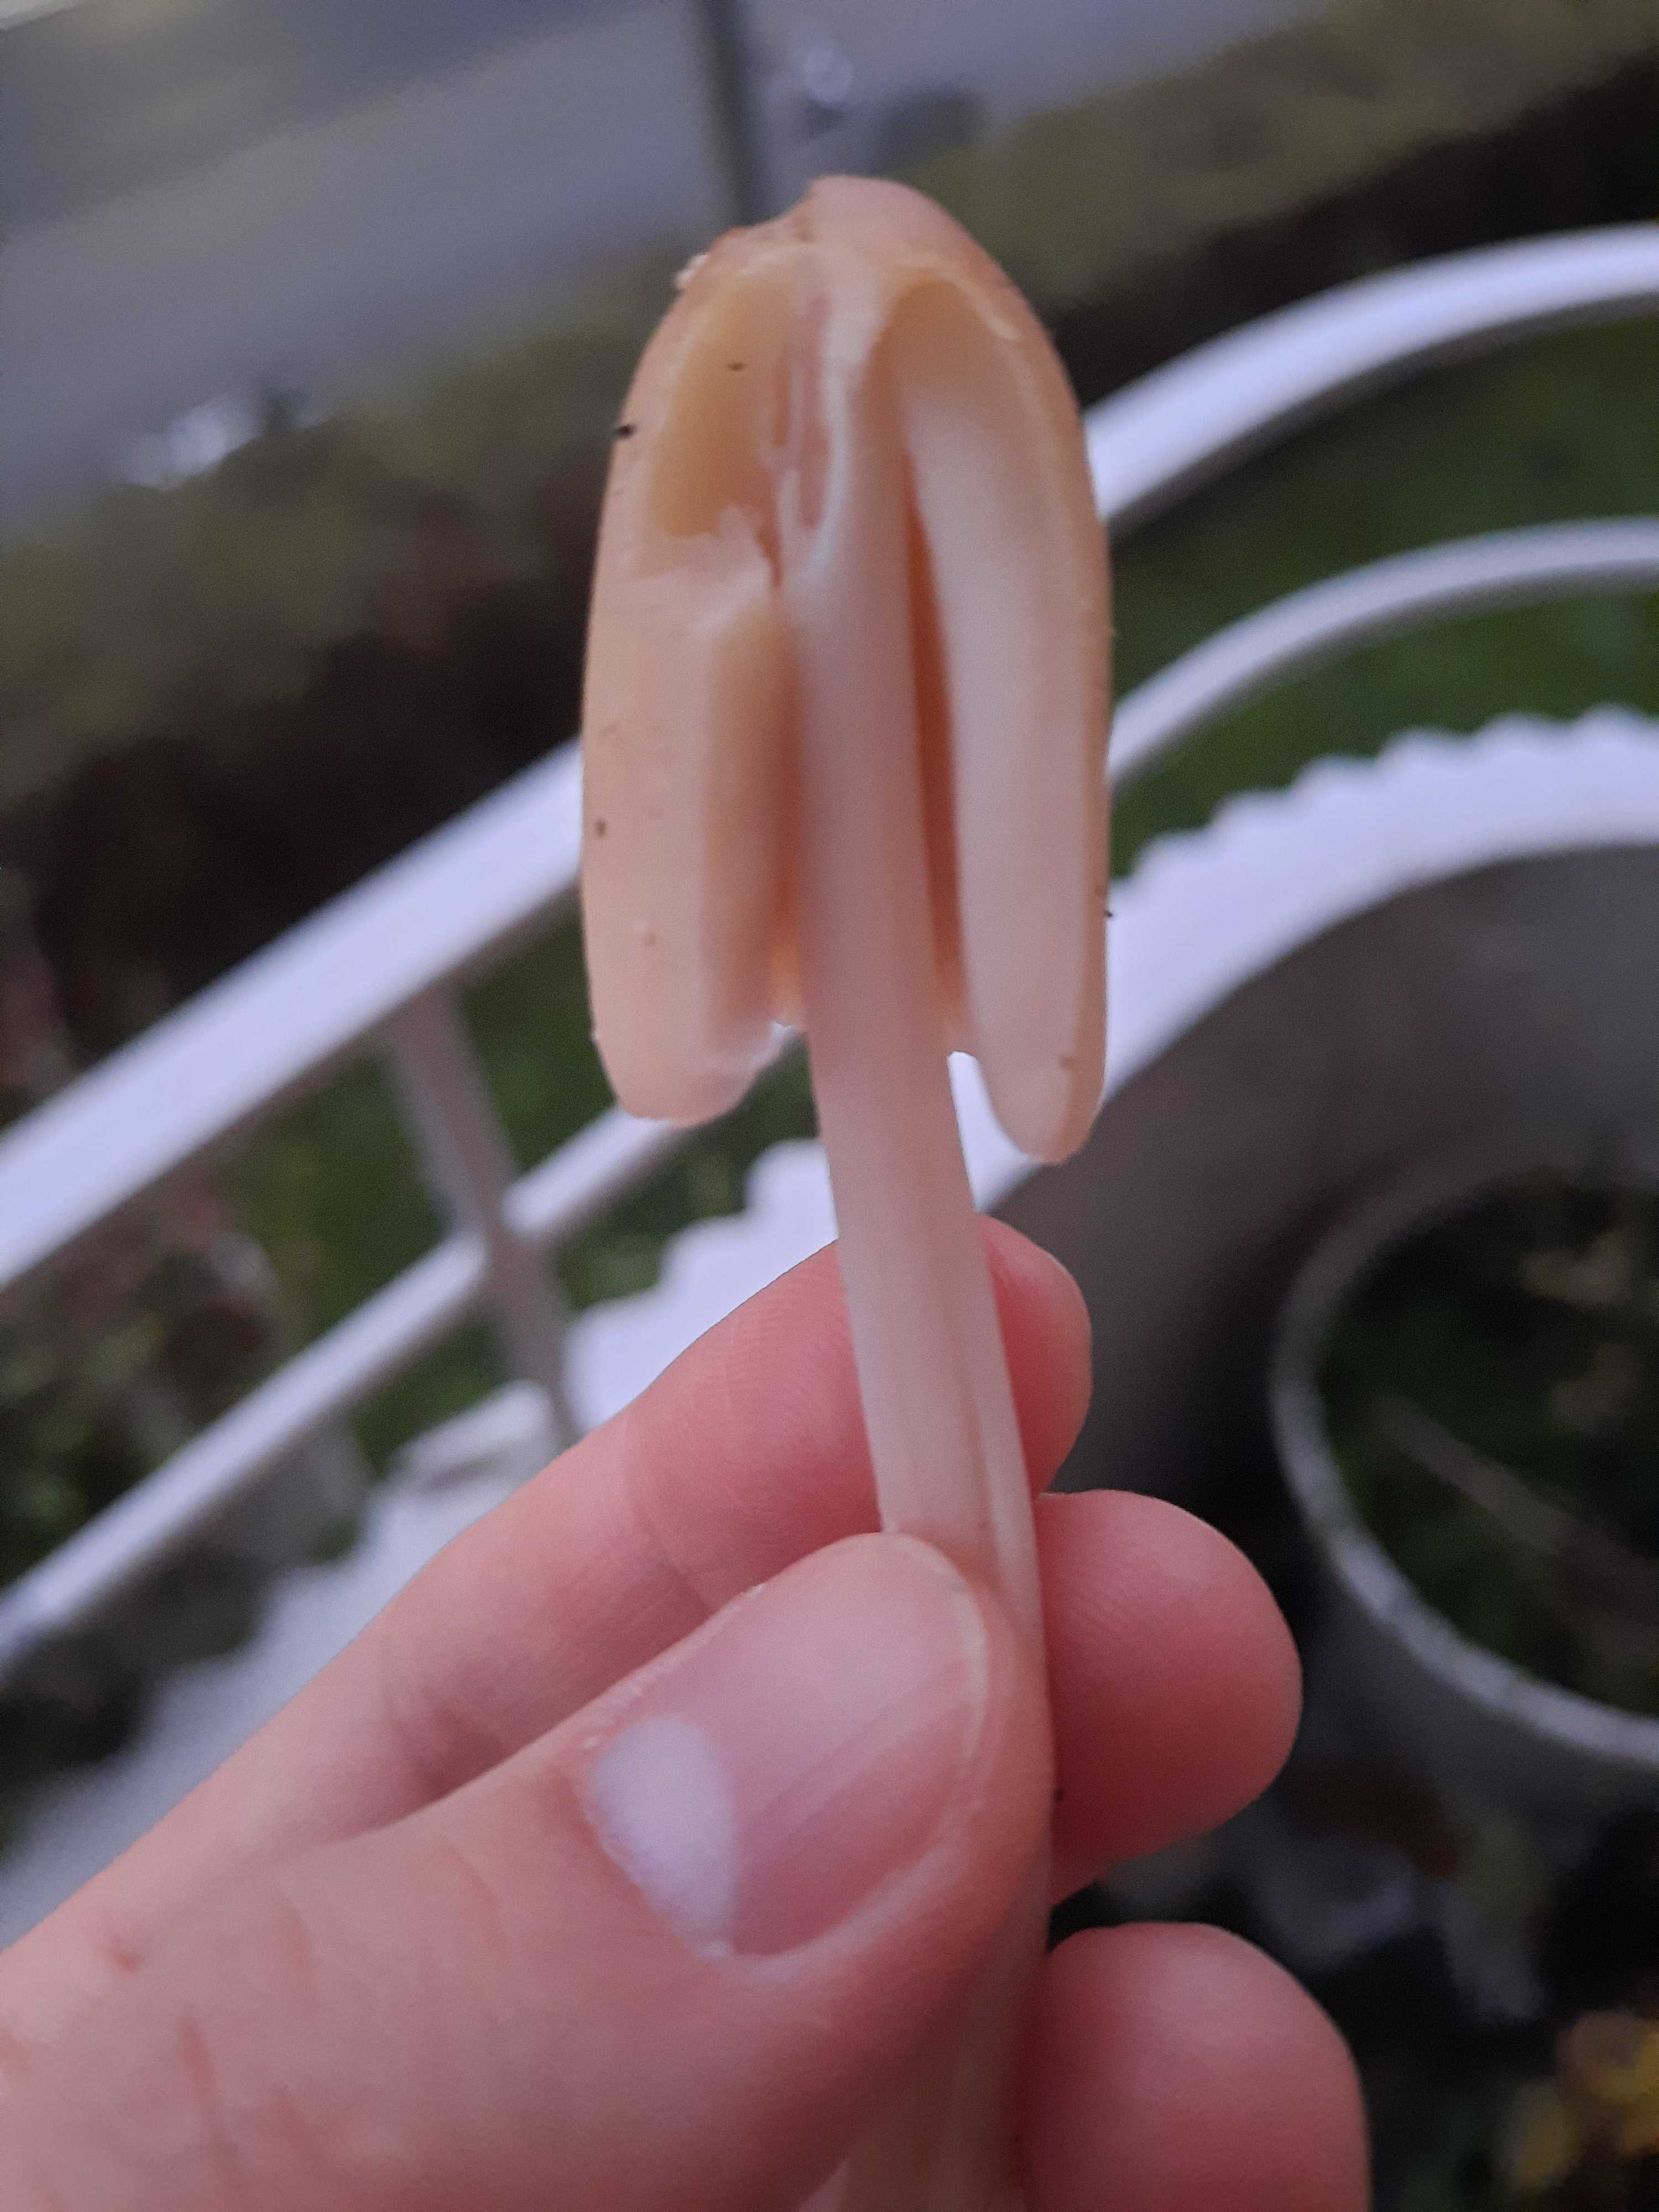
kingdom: Fungi
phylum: Basidiomycota
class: Agaricomycetes
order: Agaricales
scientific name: Agaricales
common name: champignonordenen
